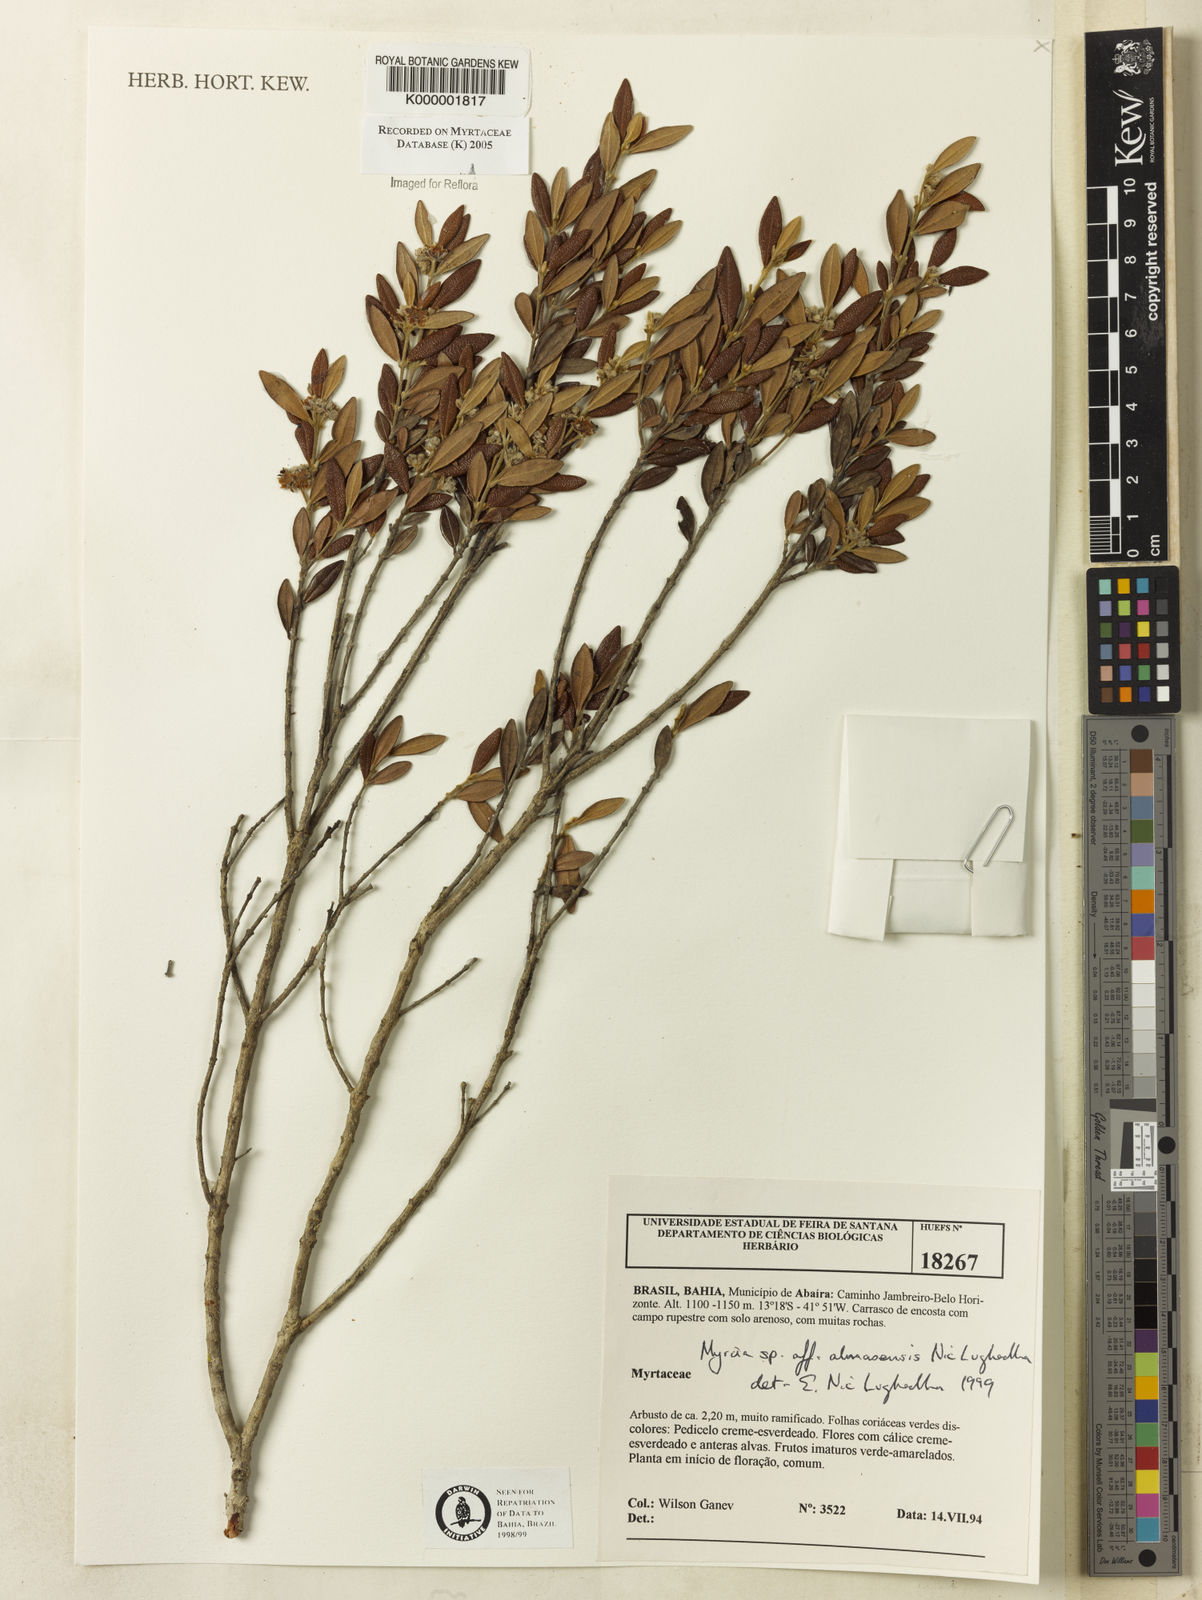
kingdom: Plantae
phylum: Tracheophyta
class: Magnoliopsida
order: Myrtales
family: Myrtaceae
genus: Myrcia
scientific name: Myrcia almasensis
